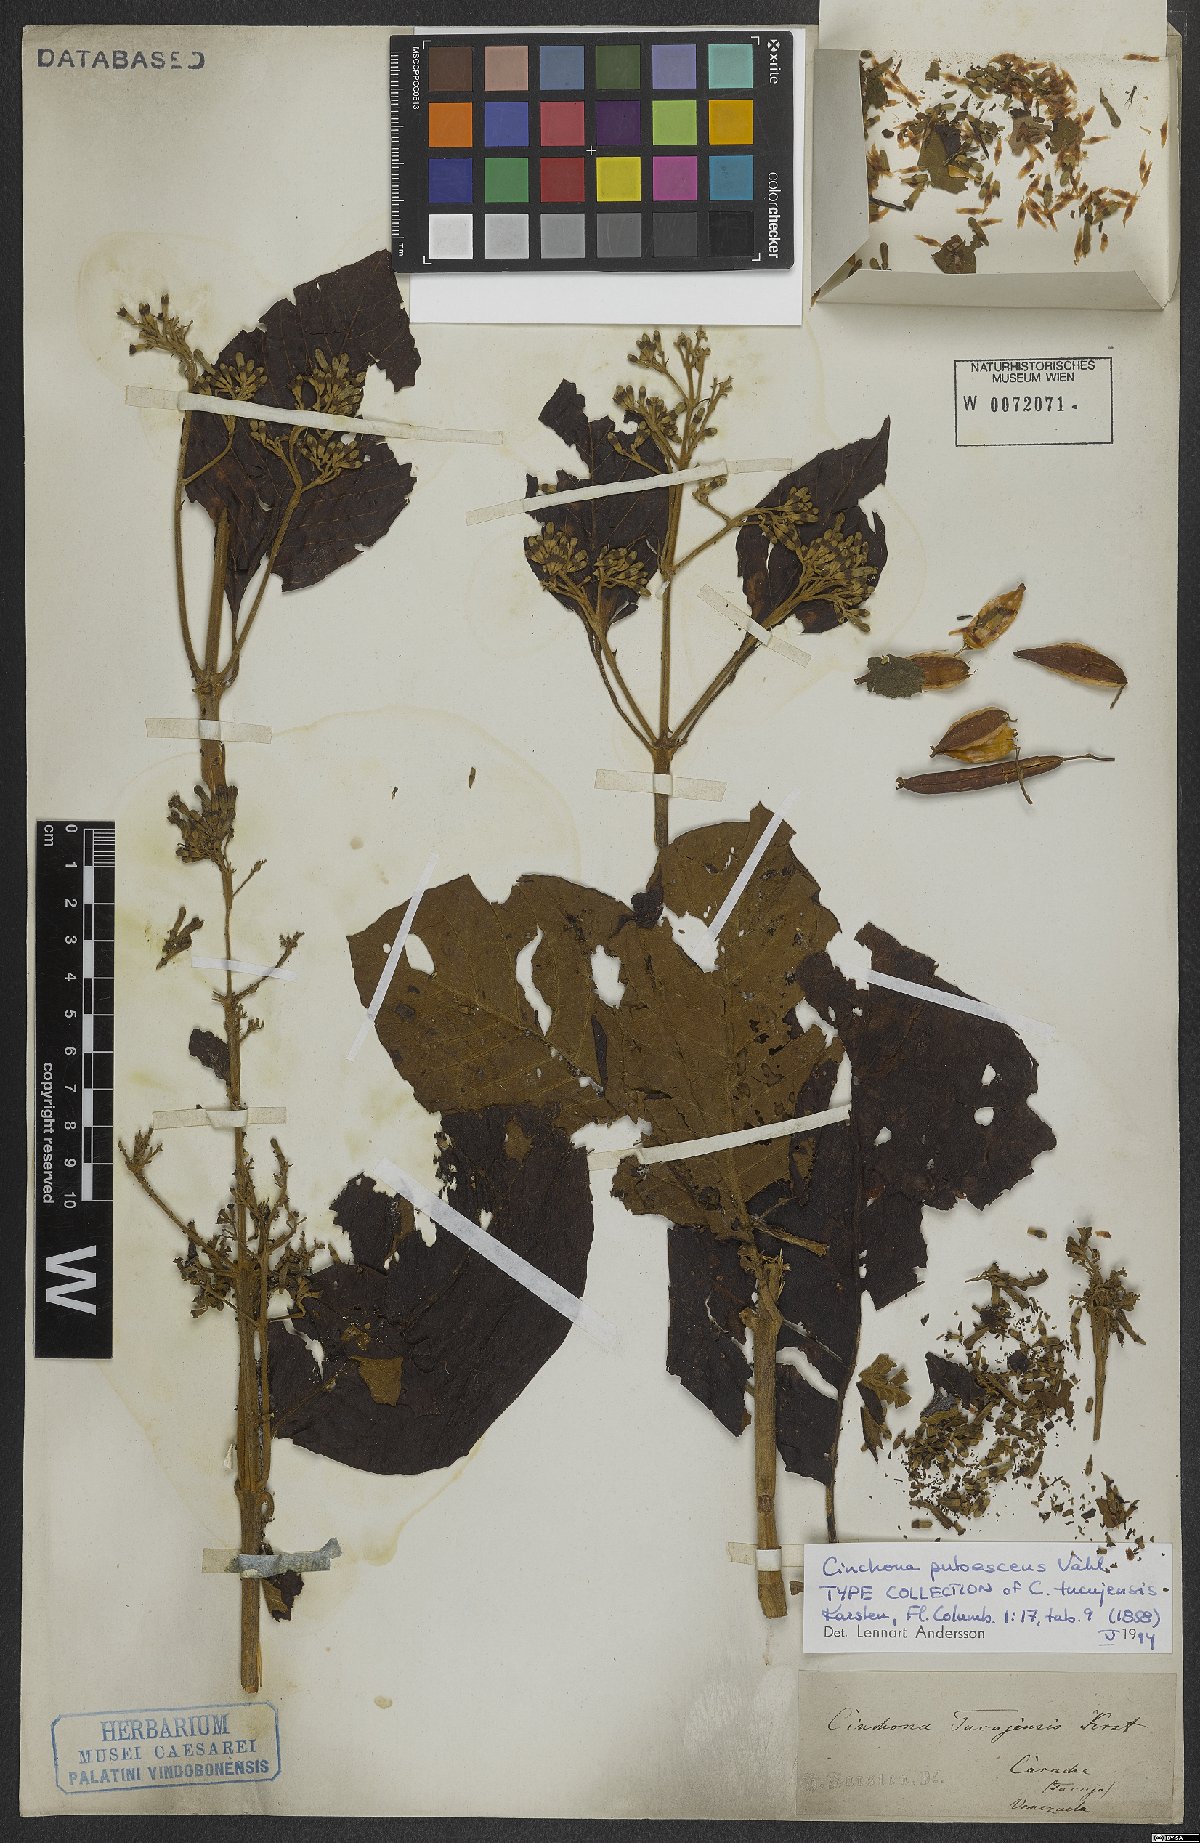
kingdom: Plantae
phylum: Tracheophyta
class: Magnoliopsida
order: Gentianales
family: Rubiaceae
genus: Cinchona
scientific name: Cinchona pubescens
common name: Quinine
